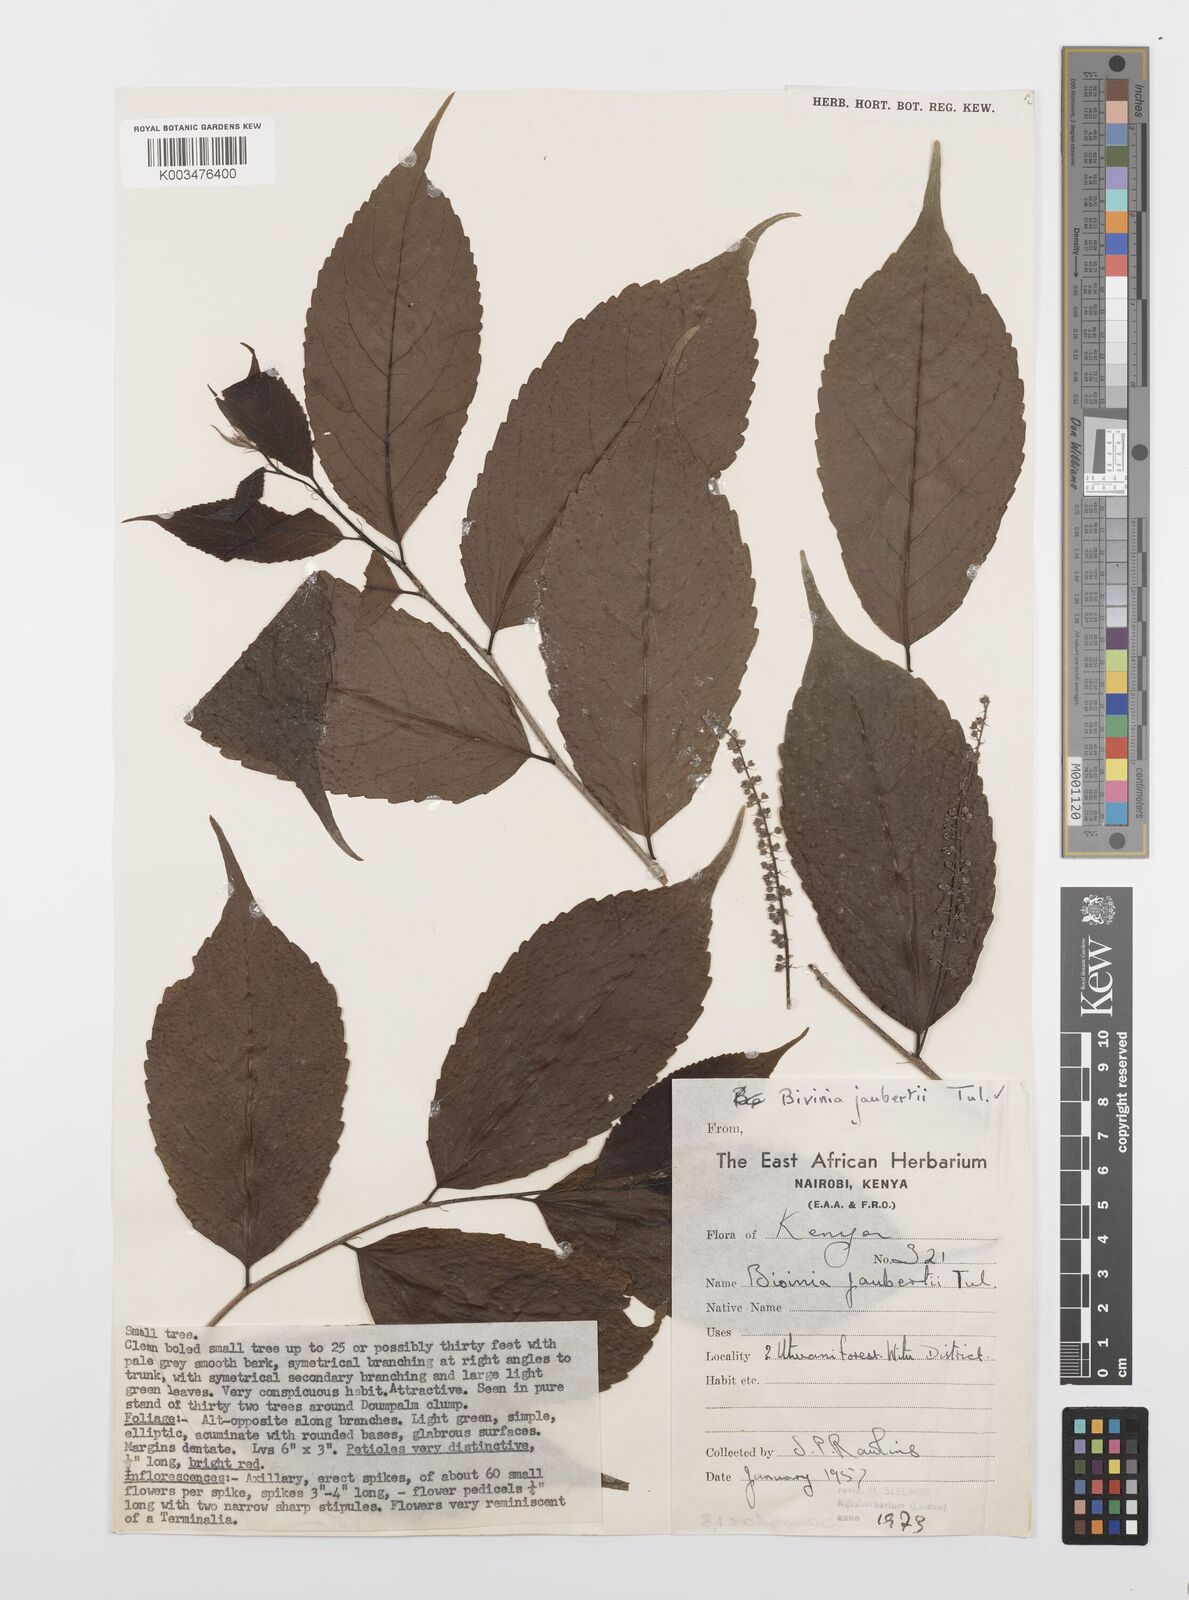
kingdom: Plantae
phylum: Tracheophyta
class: Magnoliopsida
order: Malpighiales
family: Salicaceae
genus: Bivinia
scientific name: Bivinia jalbertii
